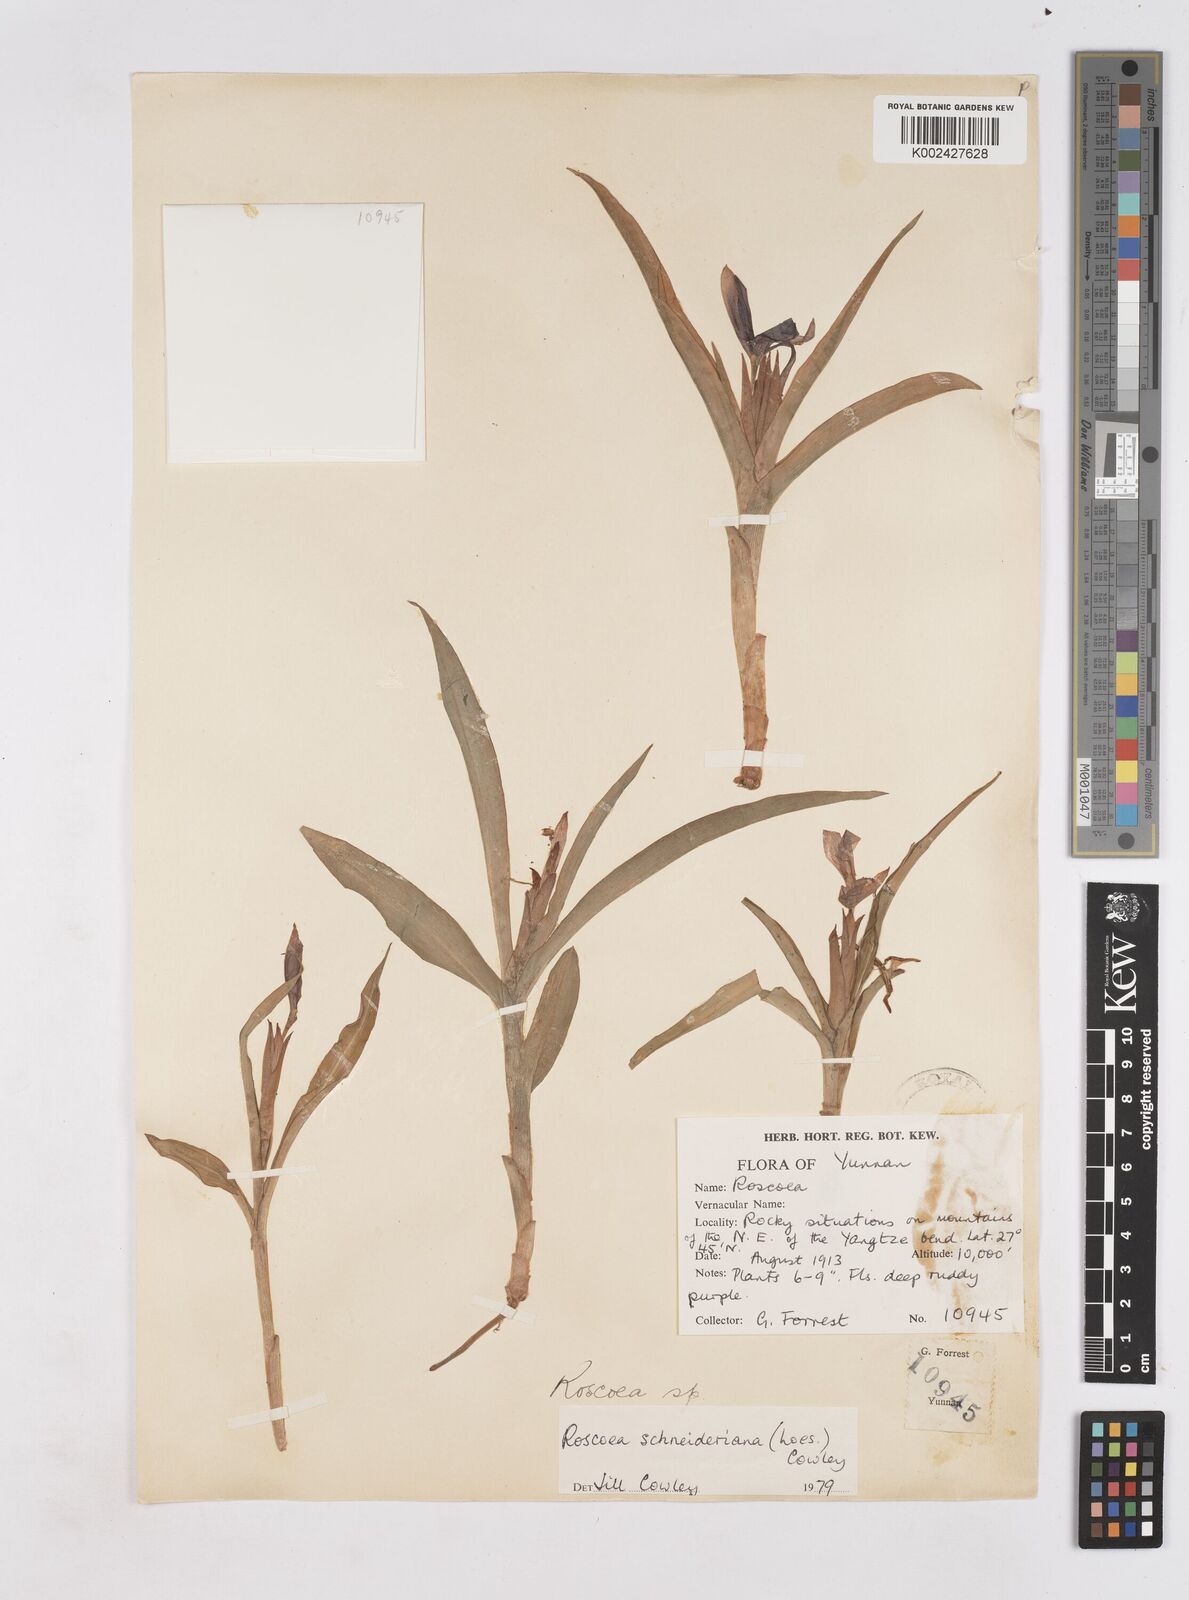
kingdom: Plantae
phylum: Tracheophyta
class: Liliopsida
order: Zingiberales
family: Zingiberaceae
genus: Roscoea
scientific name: Roscoea schneideriana
